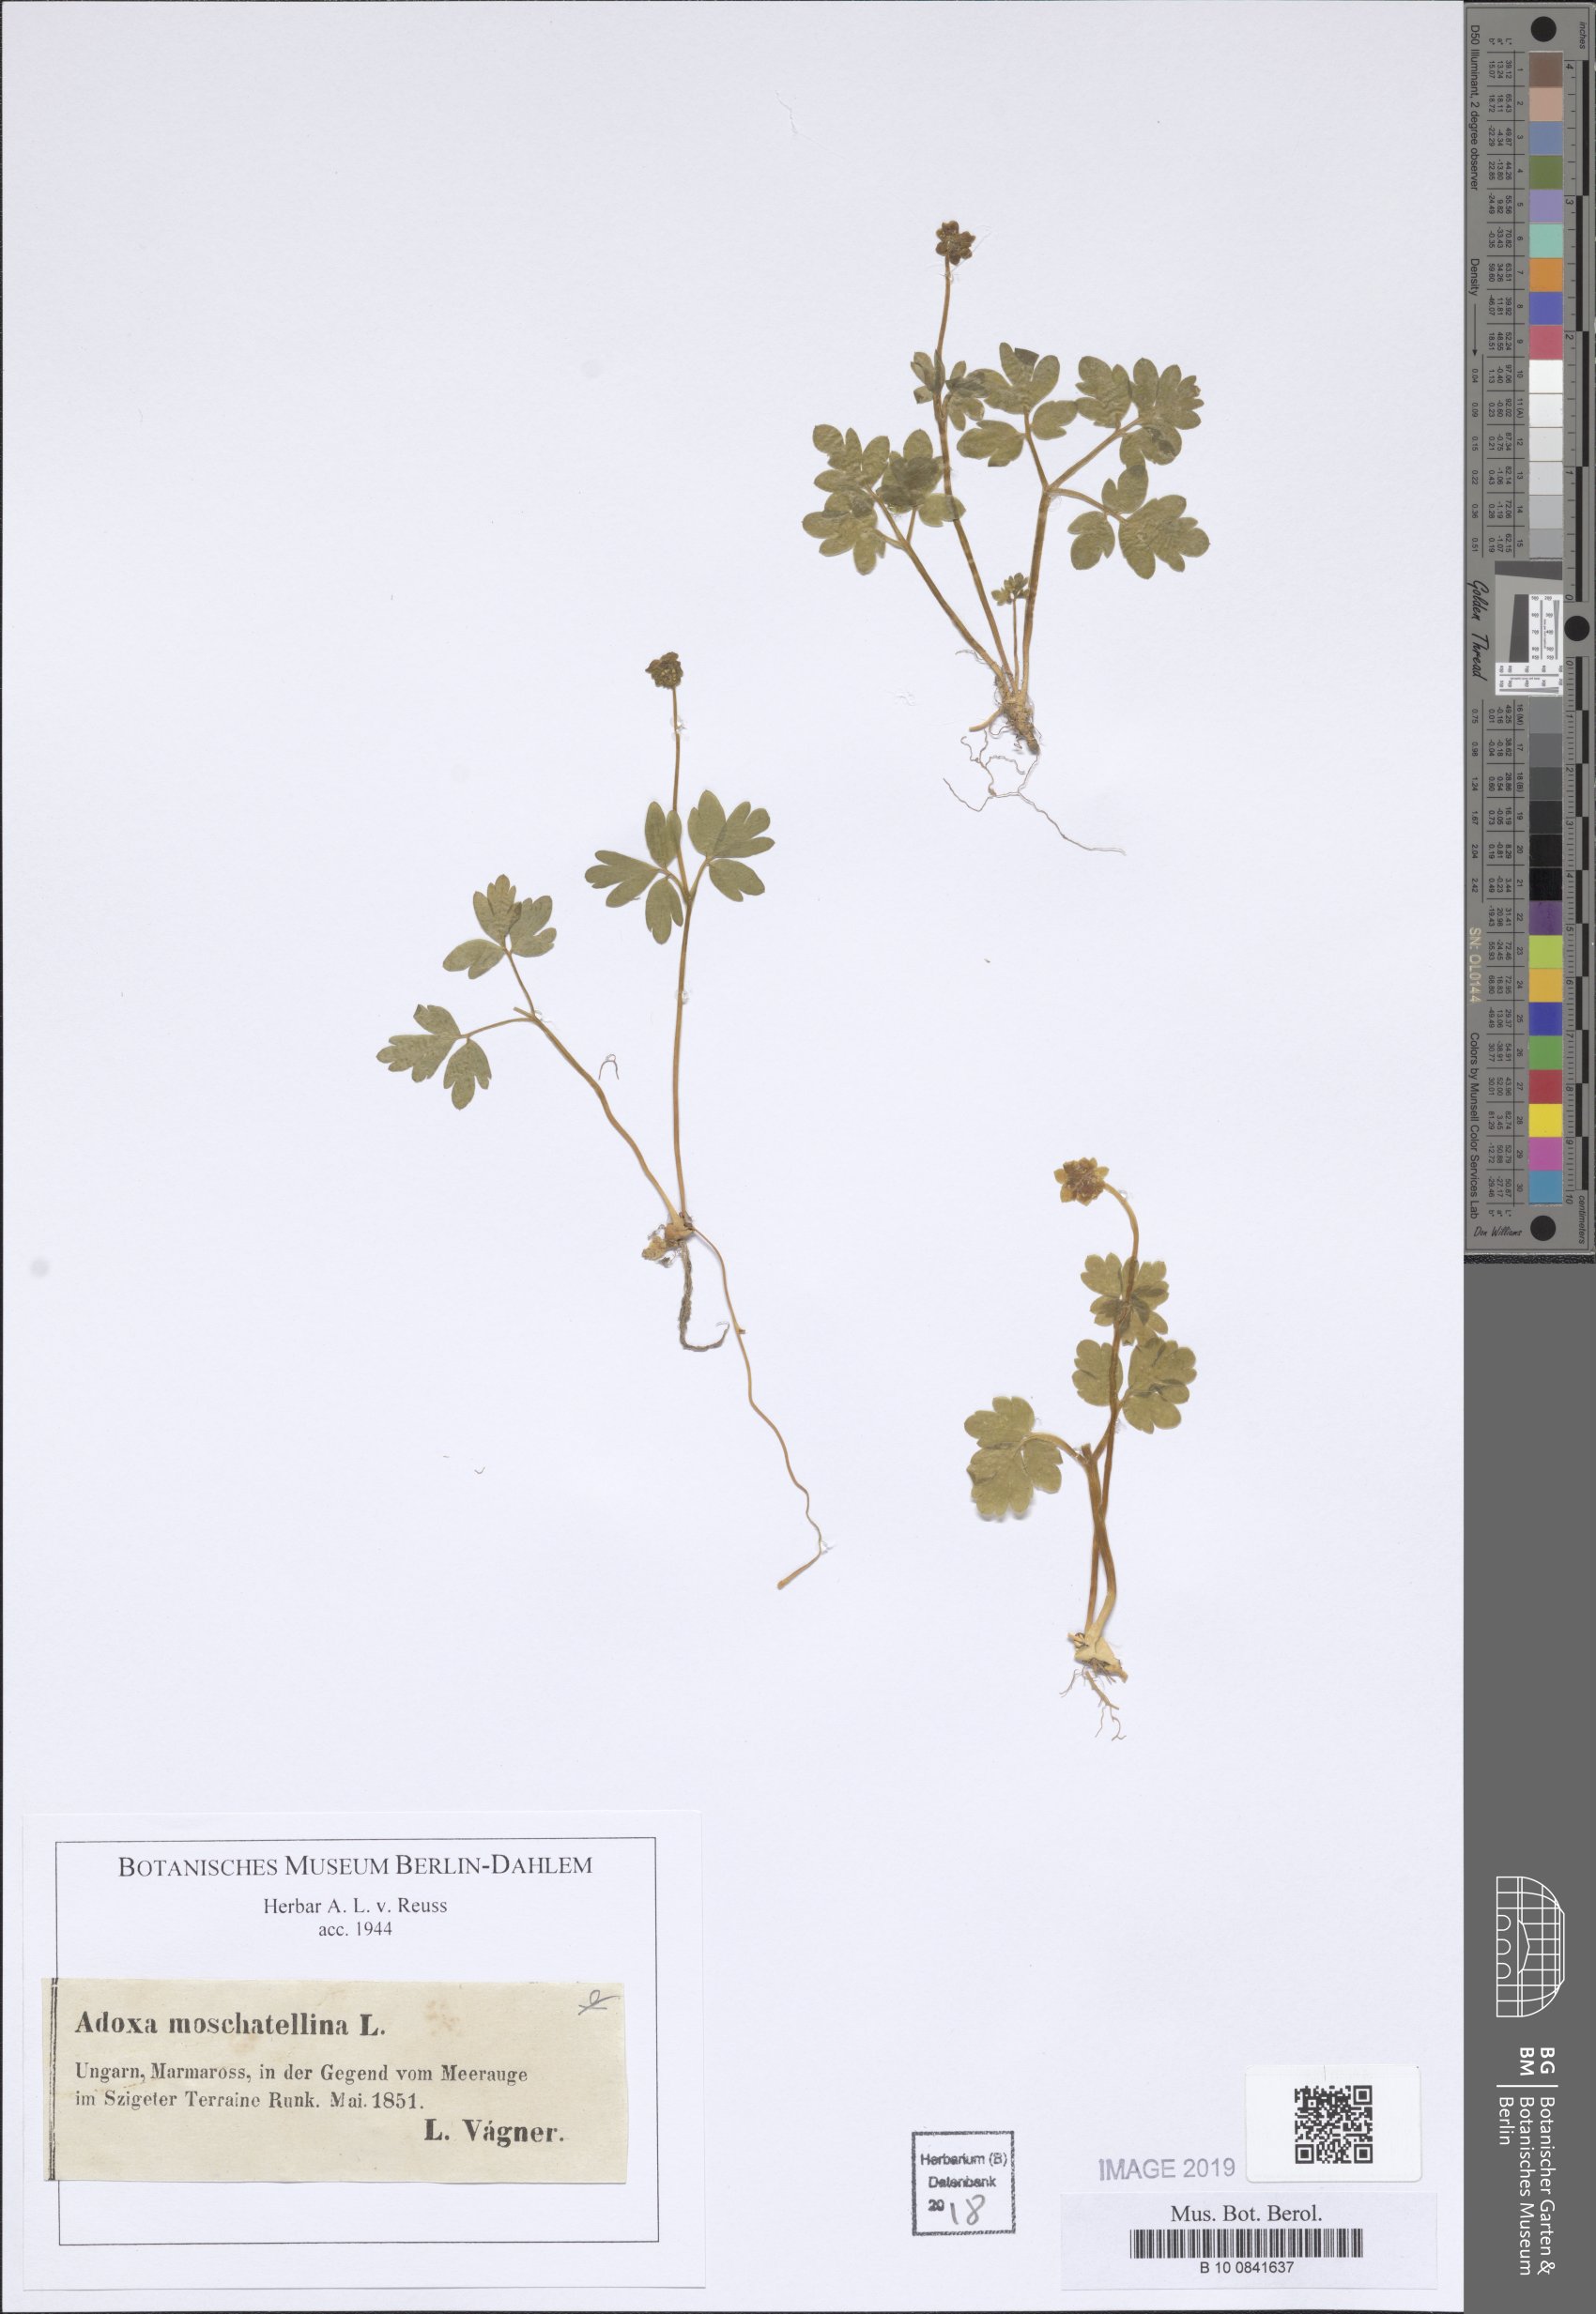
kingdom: Plantae
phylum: Tracheophyta
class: Magnoliopsida
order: Dipsacales
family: Viburnaceae
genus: Adoxa
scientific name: Adoxa moschatellina
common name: Moschatel
